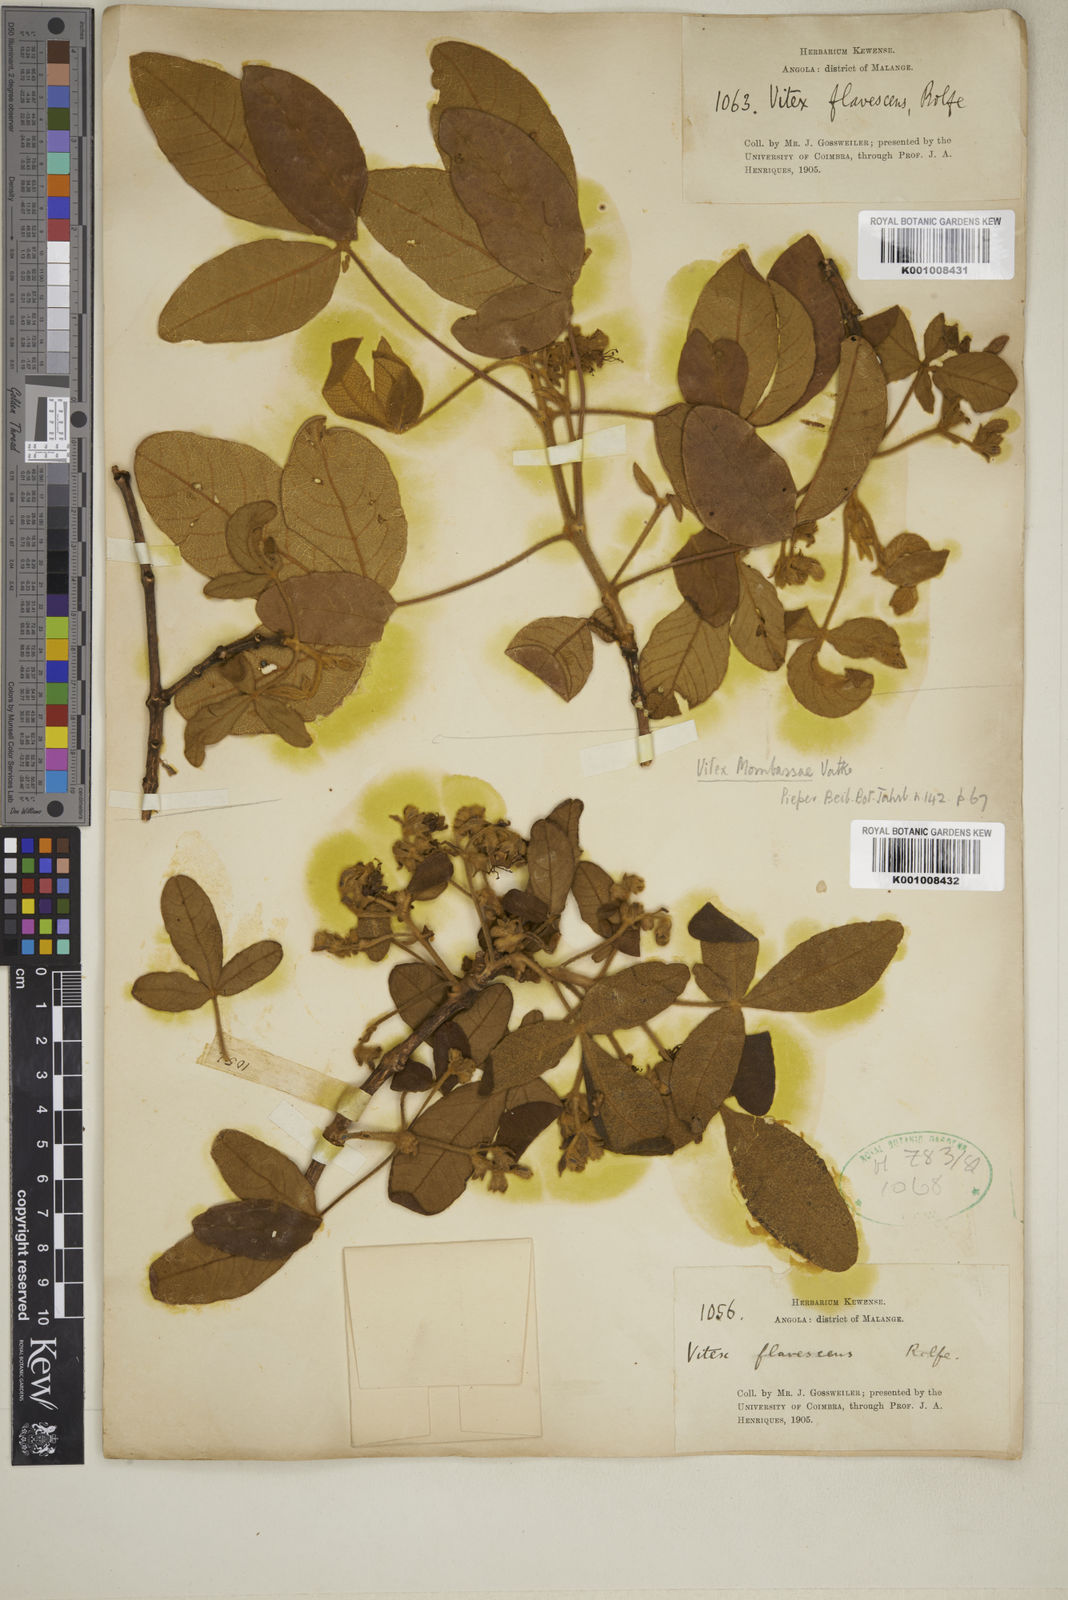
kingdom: Plantae
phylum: Tracheophyta
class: Magnoliopsida
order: Lamiales
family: Lamiaceae
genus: Vitex
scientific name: Vitex mombassae
